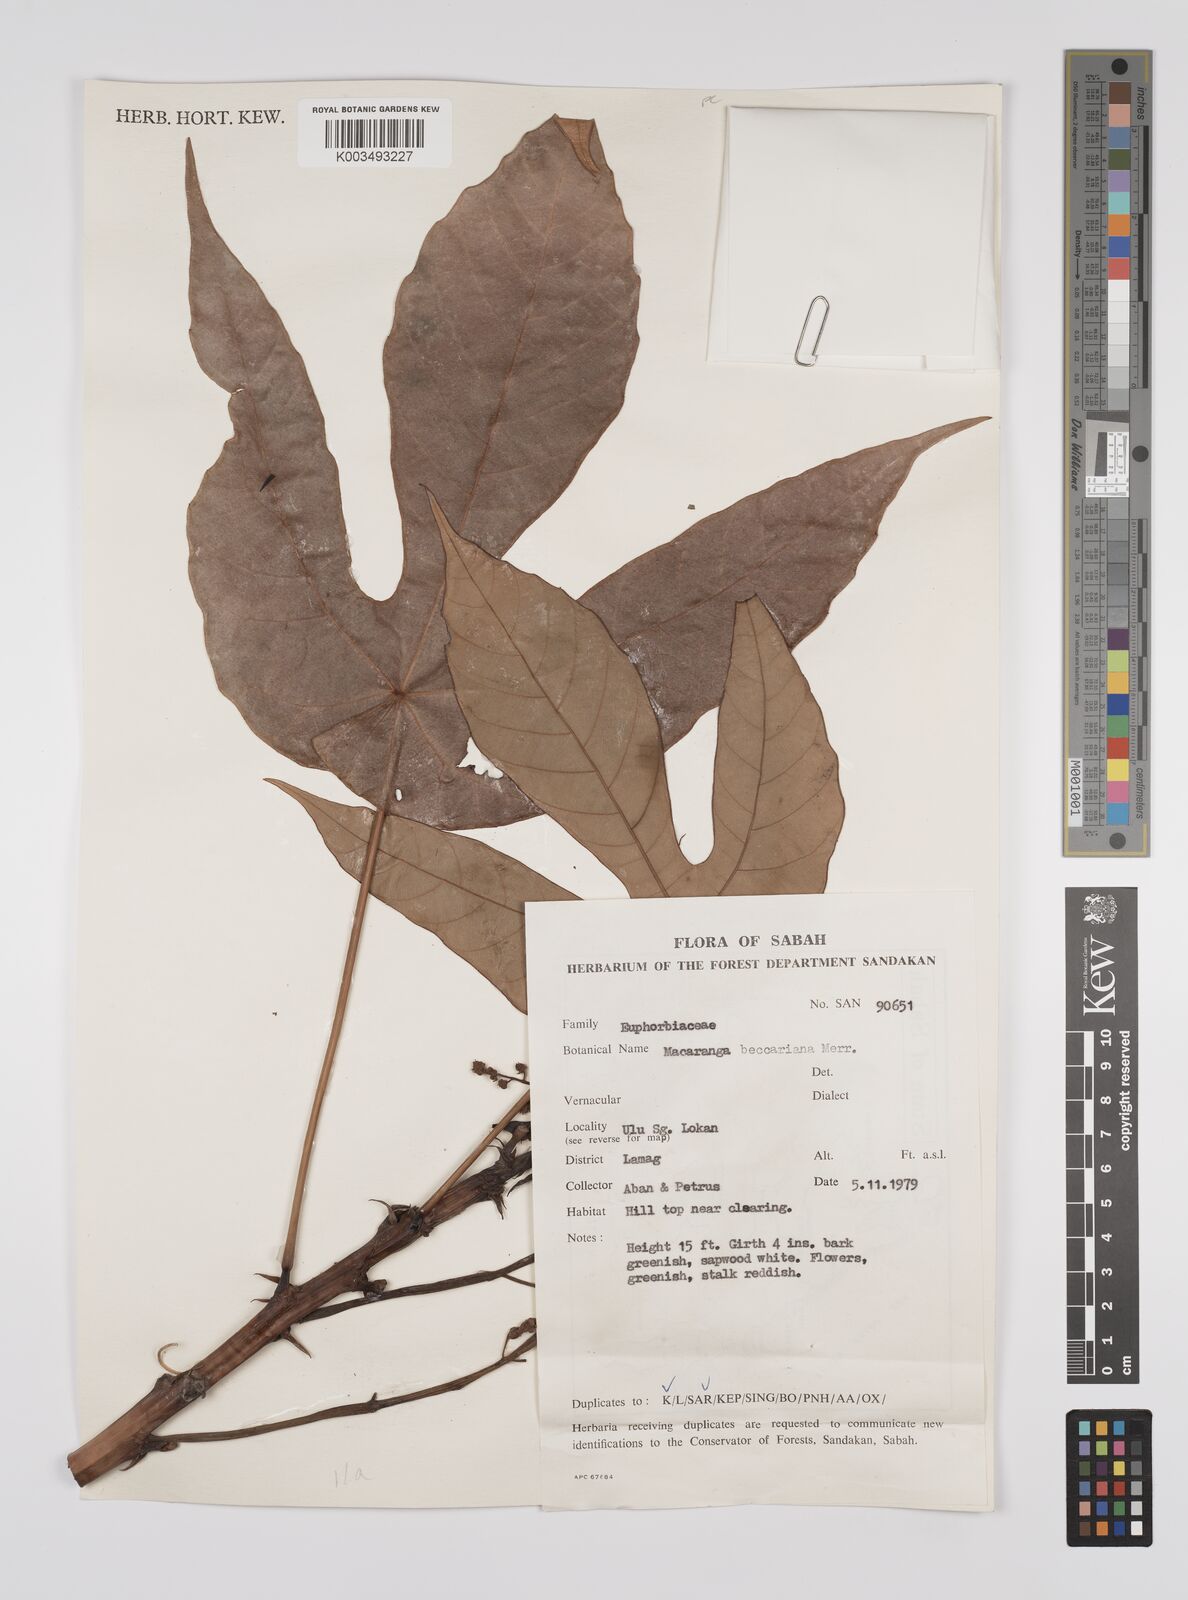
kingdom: Plantae
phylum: Tracheophyta
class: Magnoliopsida
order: Malpighiales
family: Euphorbiaceae
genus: Macaranga
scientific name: Macaranga beccariana
